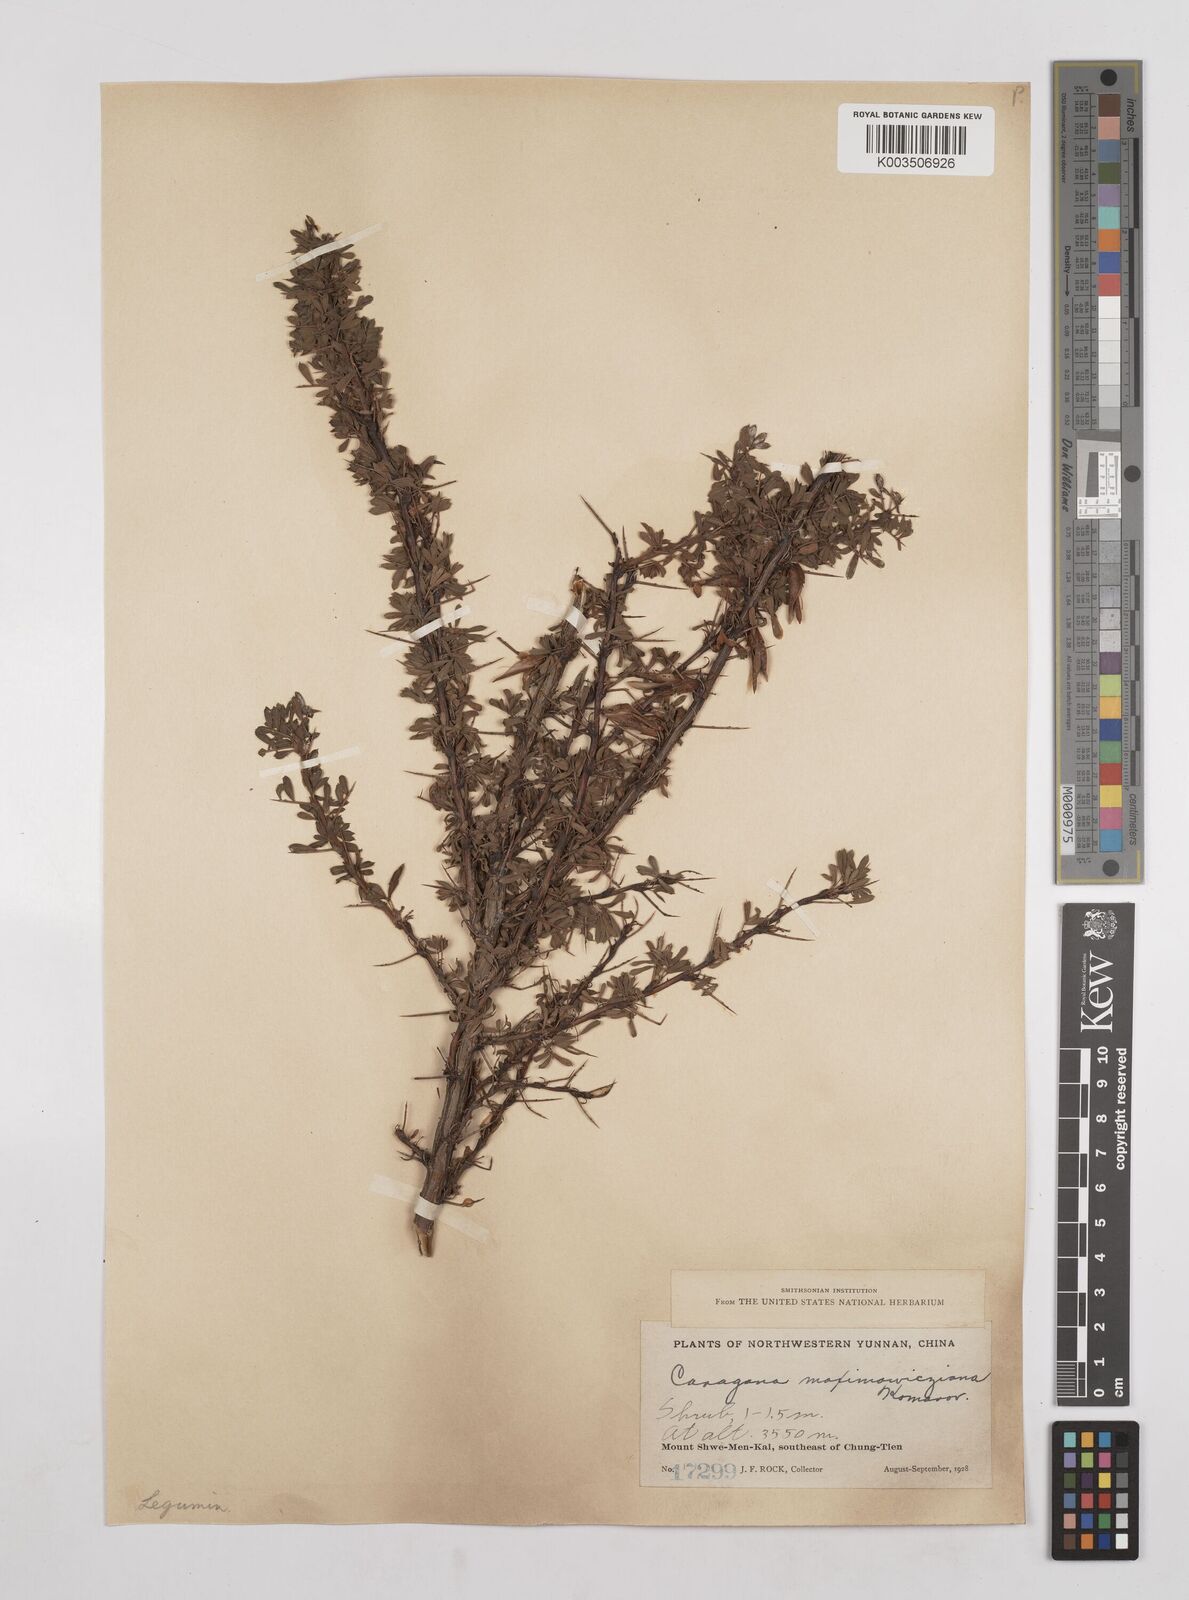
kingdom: Plantae
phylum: Tracheophyta
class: Magnoliopsida
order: Fabales
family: Fabaceae
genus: Caragana
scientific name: Caragana erinacea
